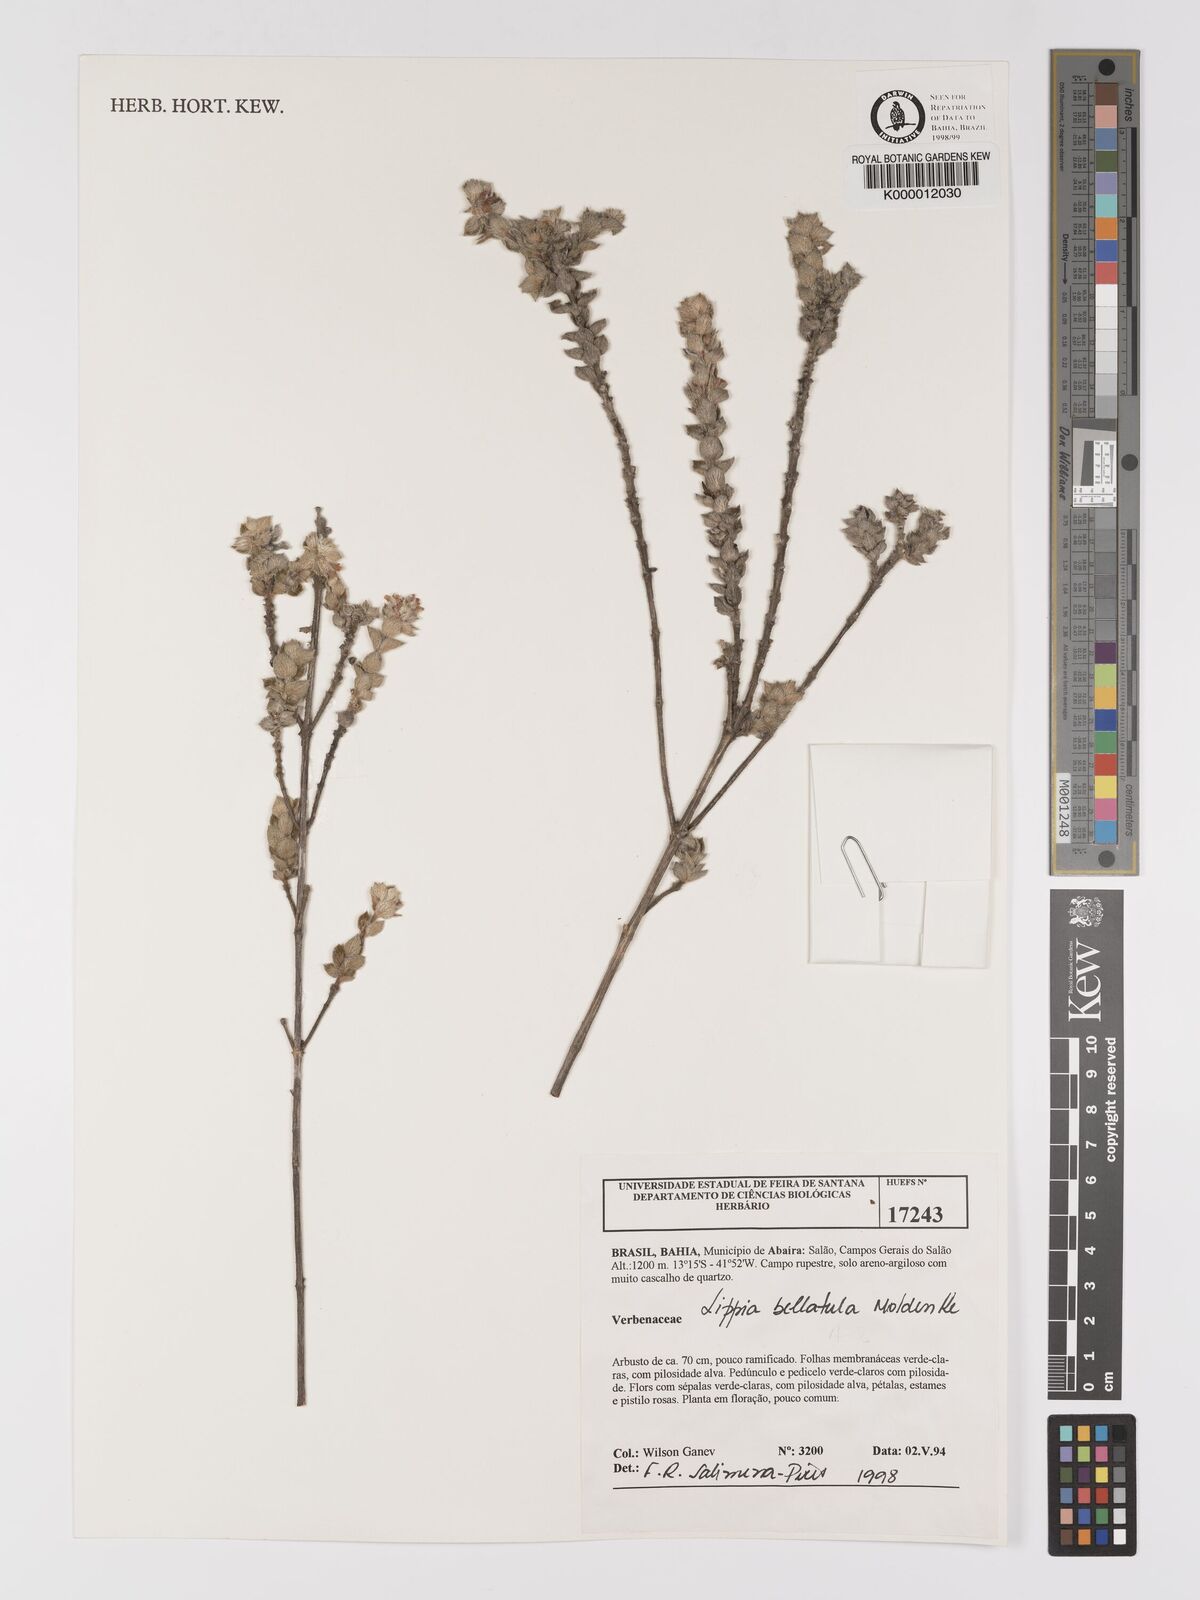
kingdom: Plantae
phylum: Tracheophyta
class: Magnoliopsida
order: Lamiales
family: Verbenaceae
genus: Lippia
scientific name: Lippia bellatula
